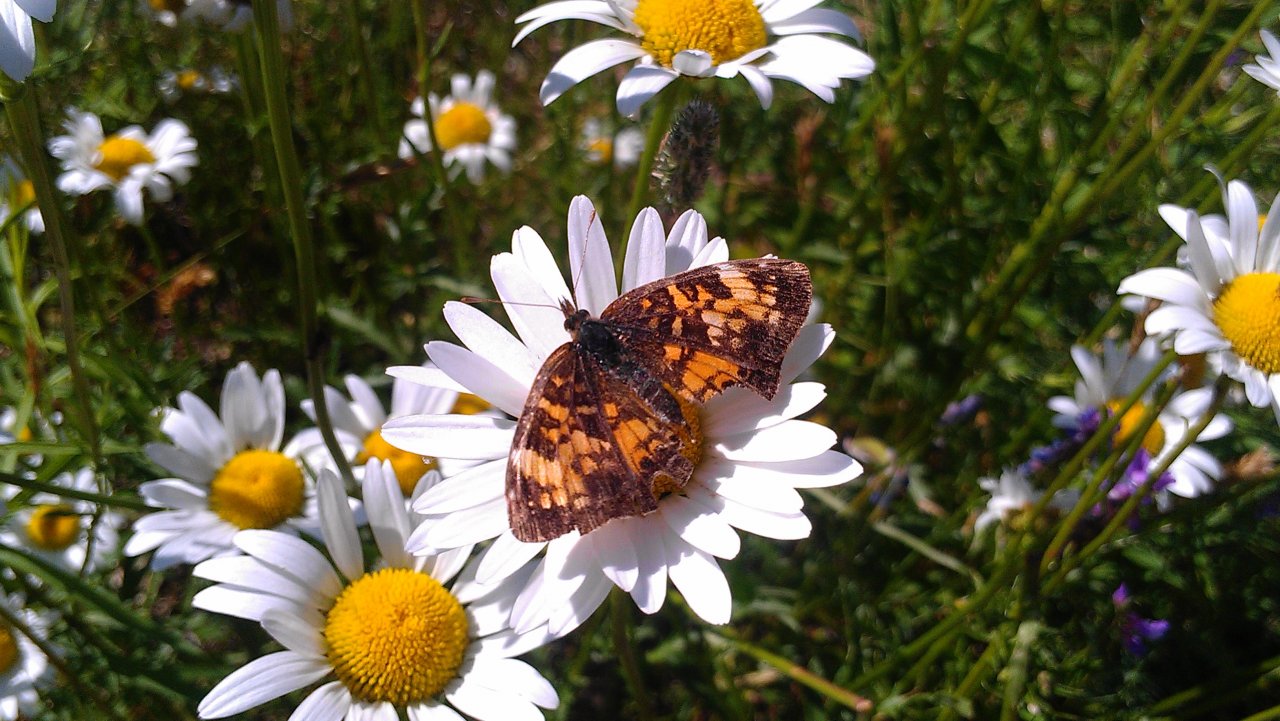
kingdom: Animalia
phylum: Arthropoda
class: Insecta
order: Lepidoptera
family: Nymphalidae
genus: Phyciodes
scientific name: Phyciodes tharos
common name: Northern Crescent
